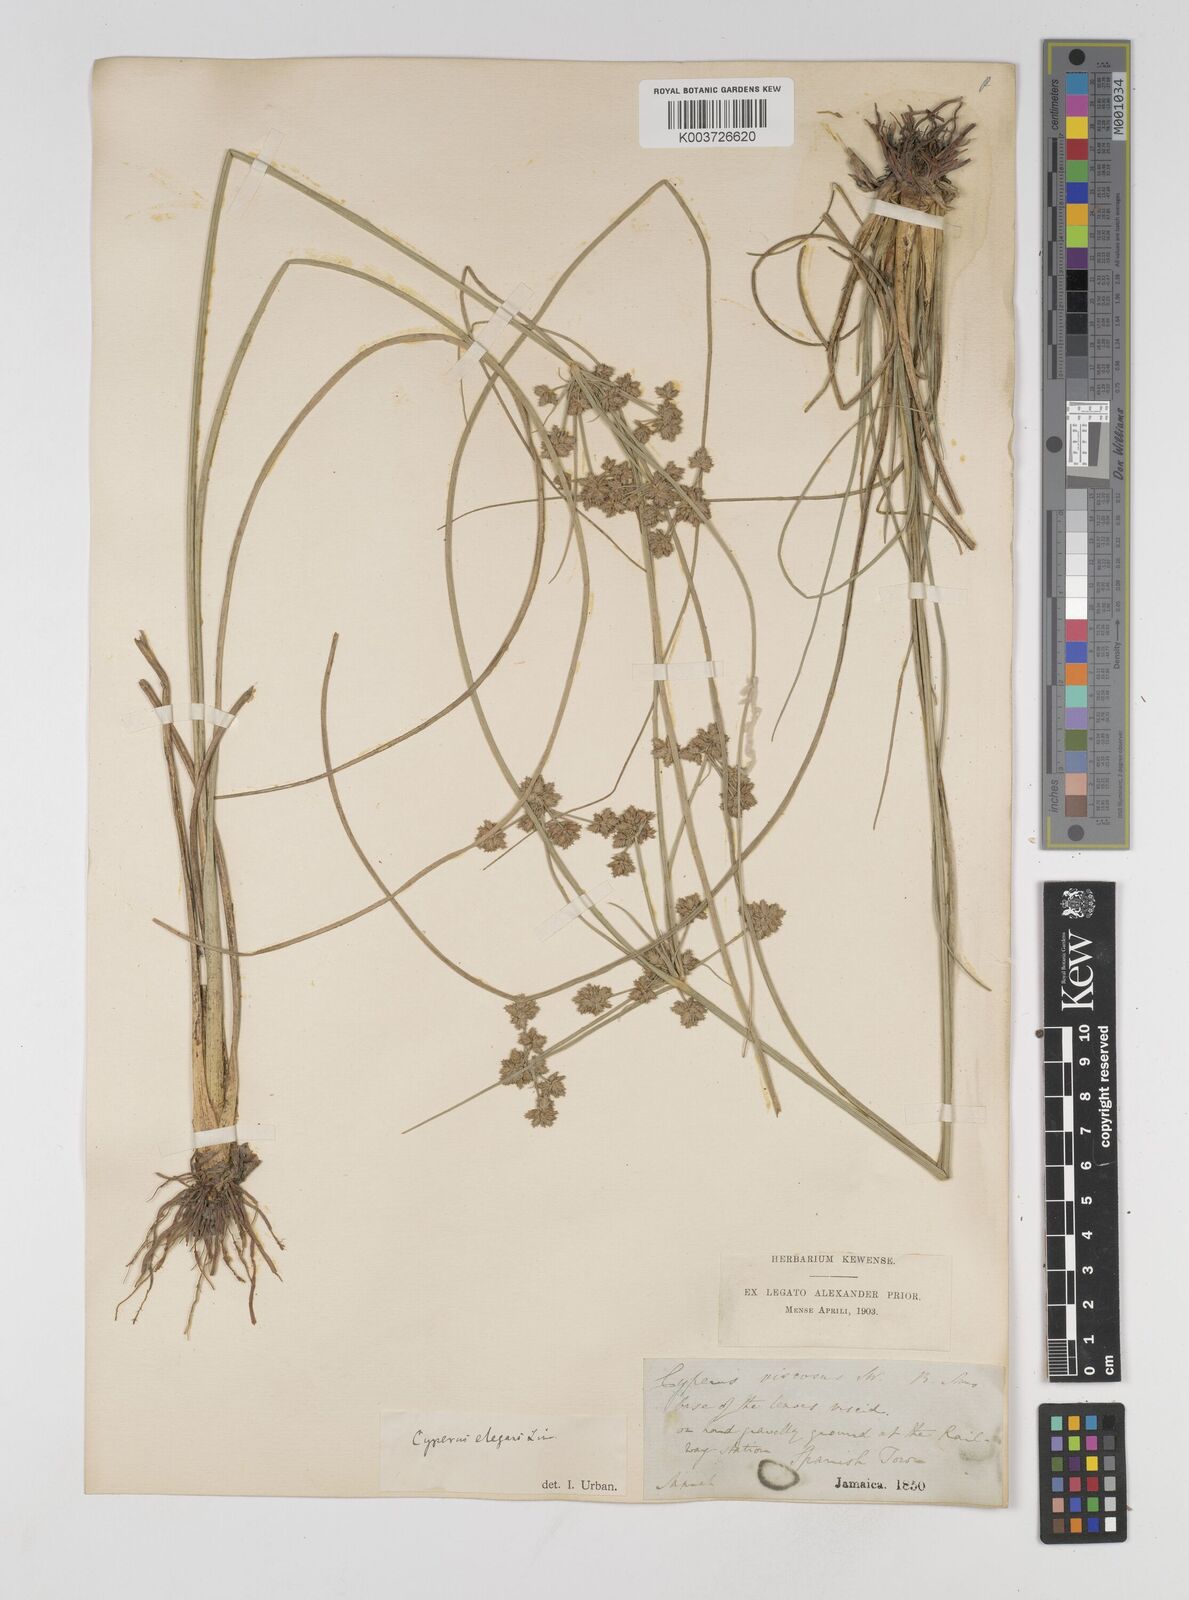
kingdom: Plantae
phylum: Tracheophyta
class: Liliopsida
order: Poales
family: Cyperaceae
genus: Cyperus
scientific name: Cyperus elegans
